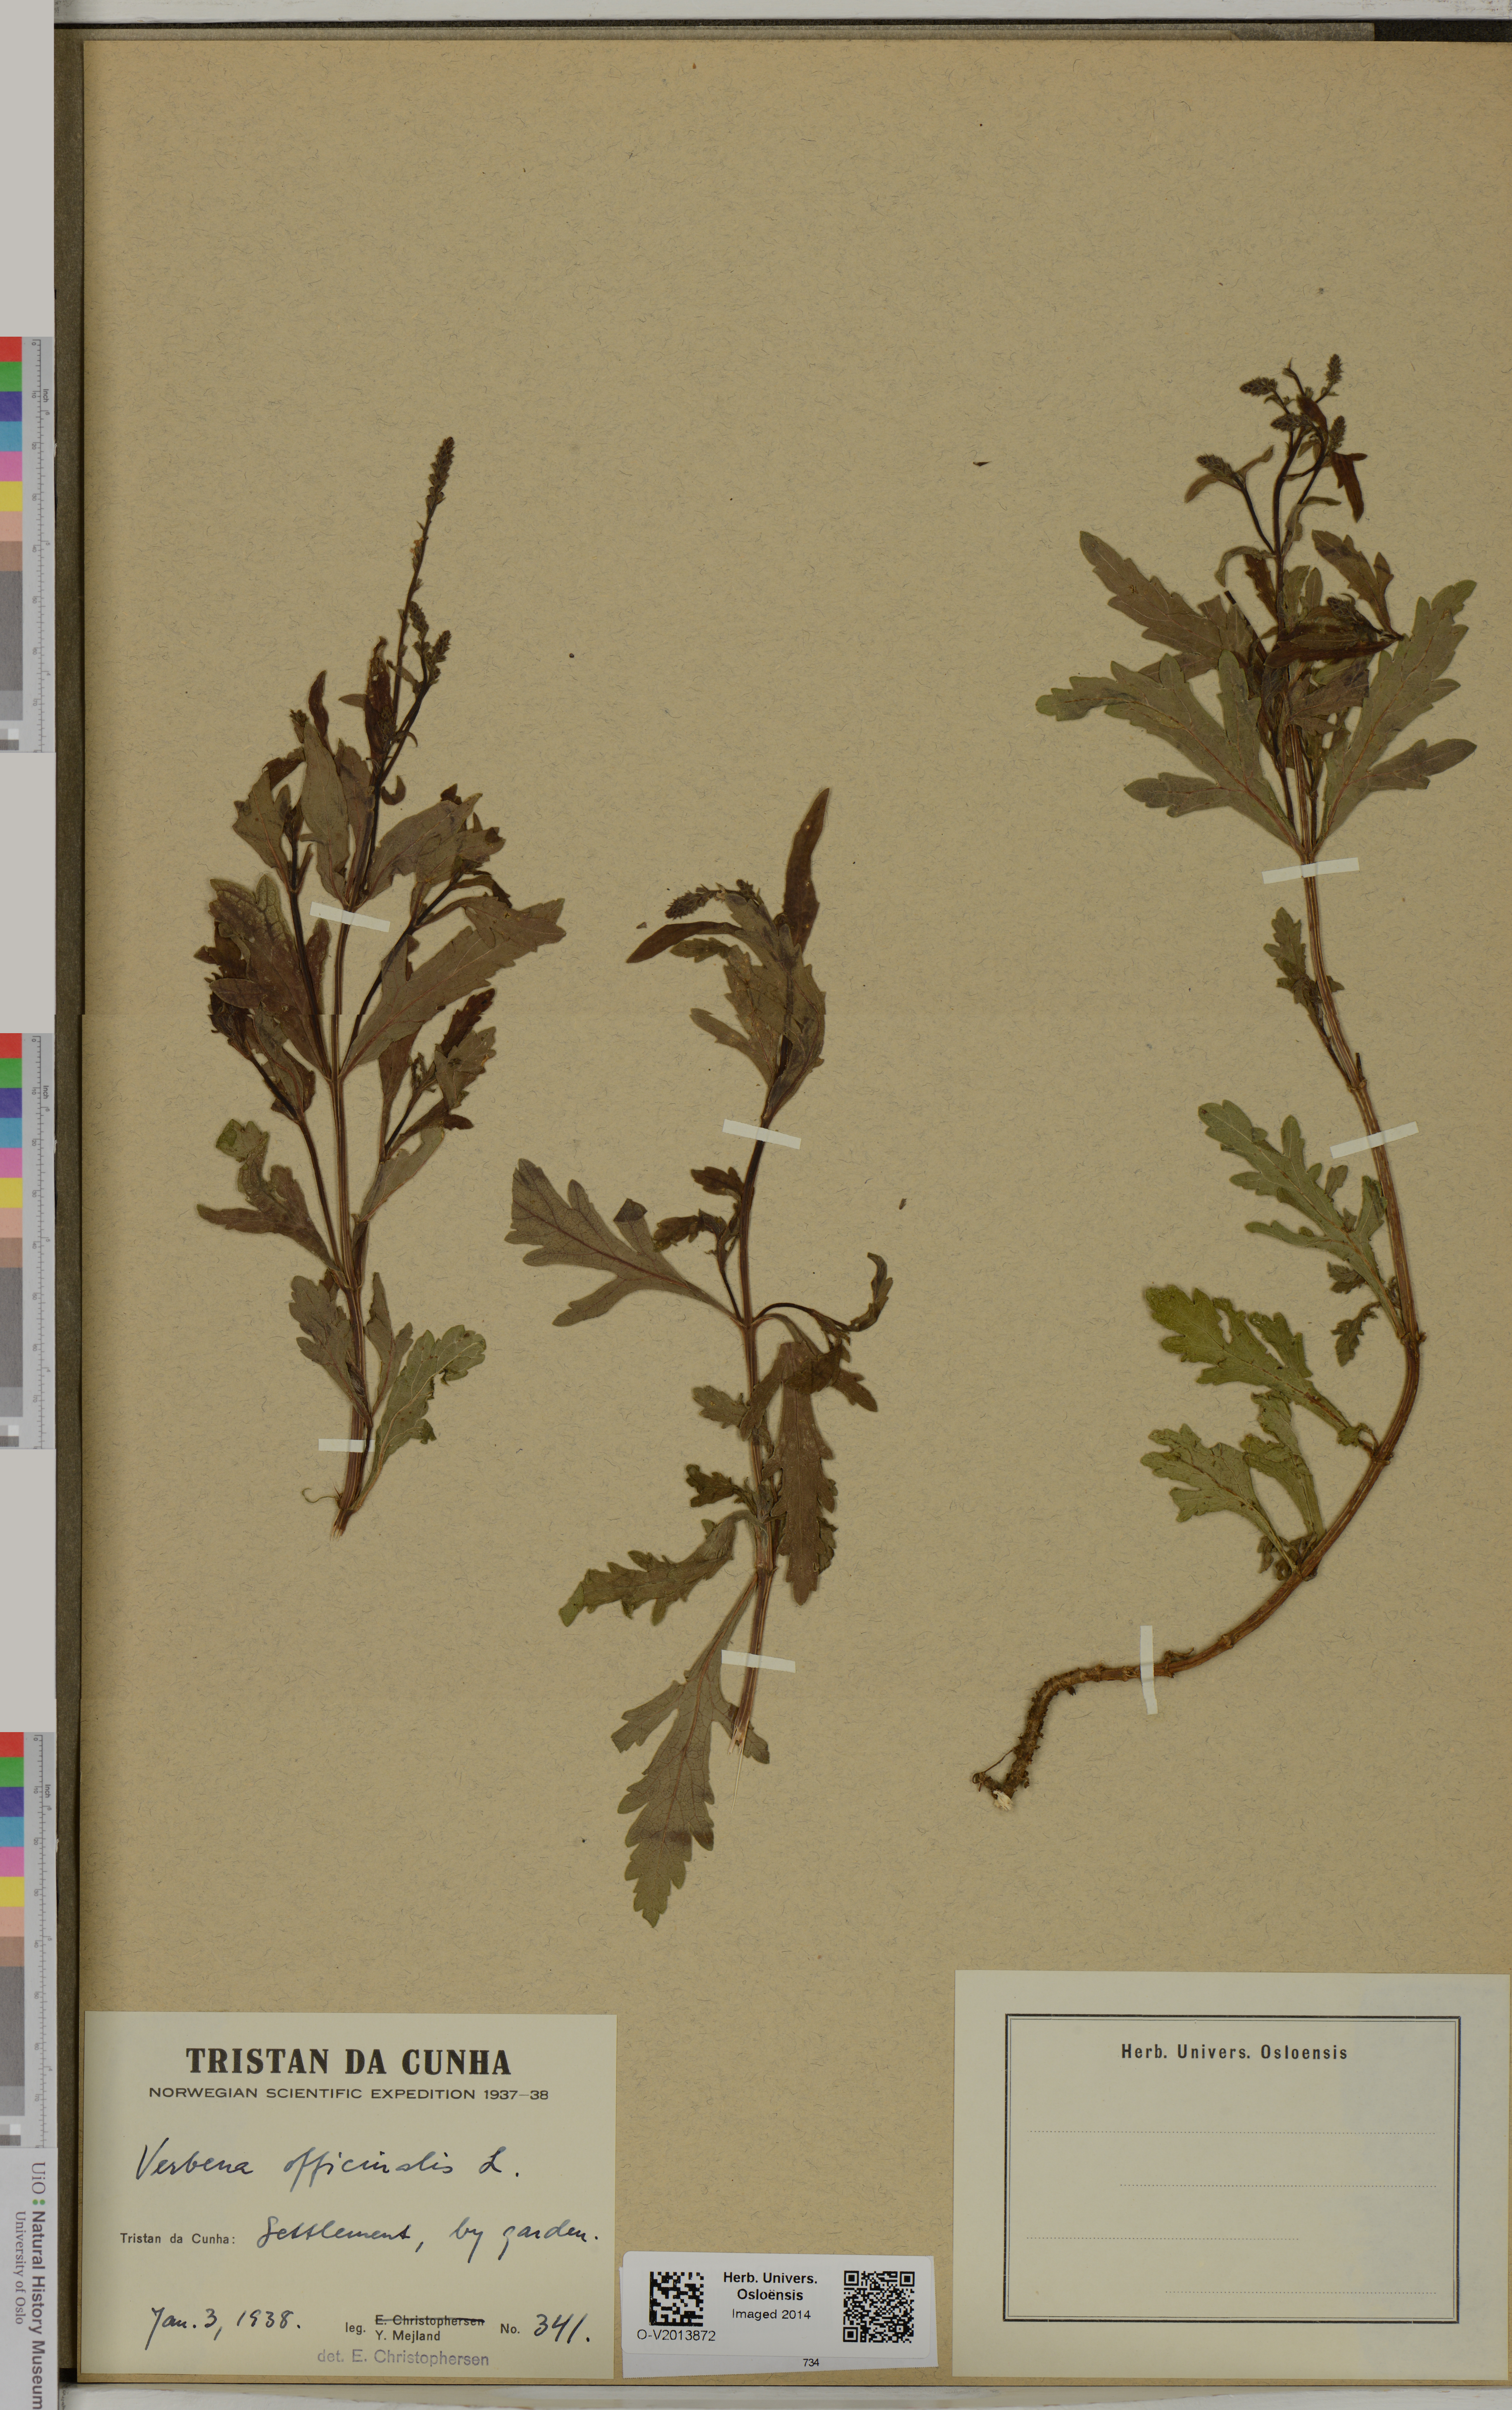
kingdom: Plantae
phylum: Tracheophyta
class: Magnoliopsida
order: Lamiales
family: Verbenaceae
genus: Verbena
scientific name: Verbena officinalis
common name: Vervain
